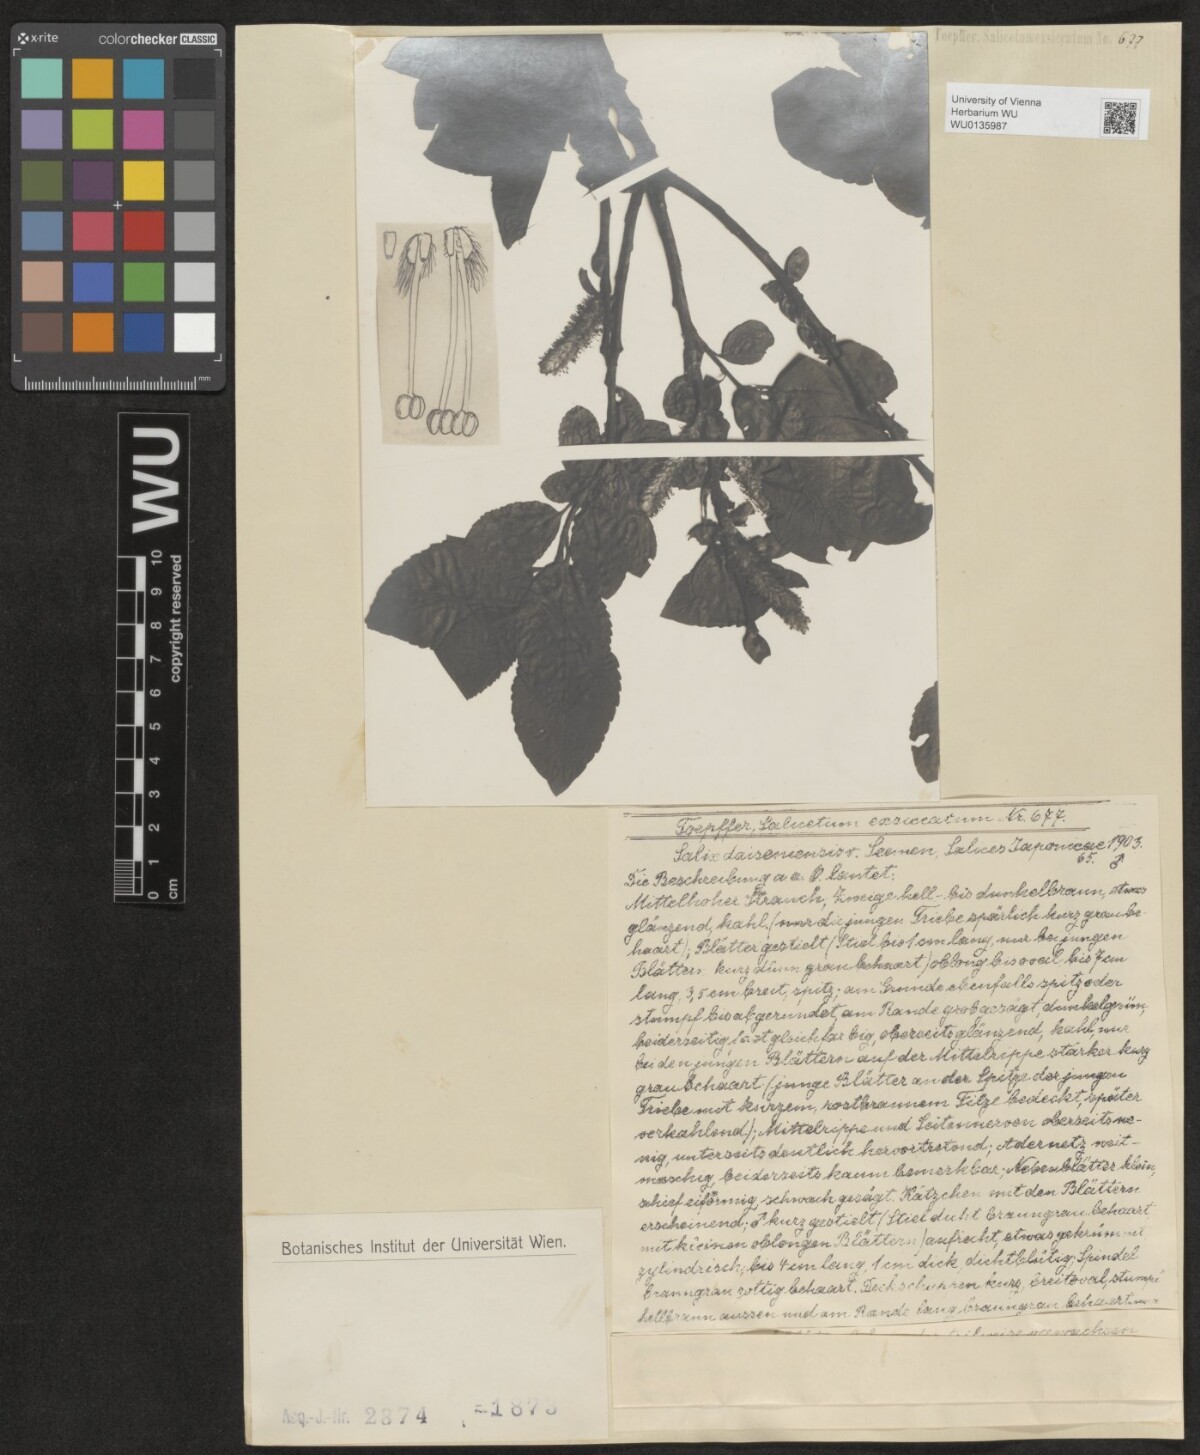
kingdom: Plantae
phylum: Tracheophyta
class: Magnoliopsida
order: Malpighiales
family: Salicaceae
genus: Salix
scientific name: Salix sieboldiana
